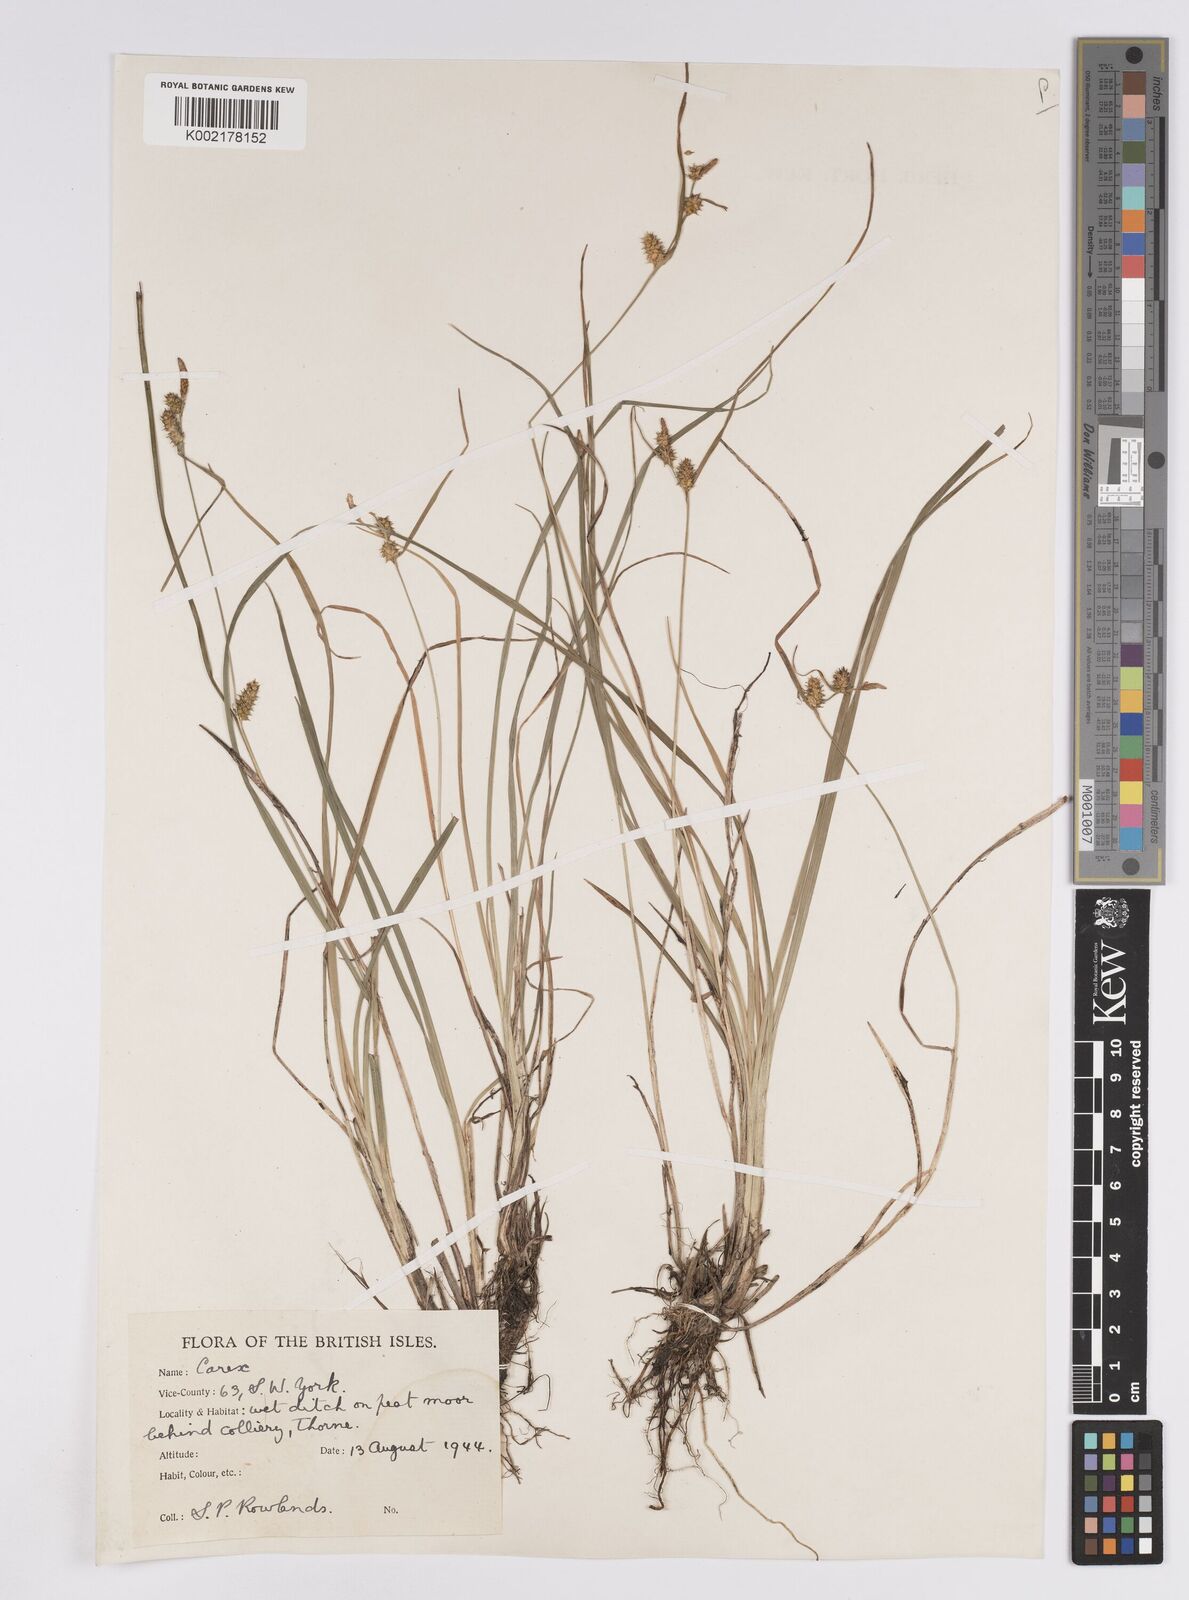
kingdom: Plantae
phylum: Tracheophyta
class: Liliopsida
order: Poales
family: Cyperaceae
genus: Carex
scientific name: Carex demissa
